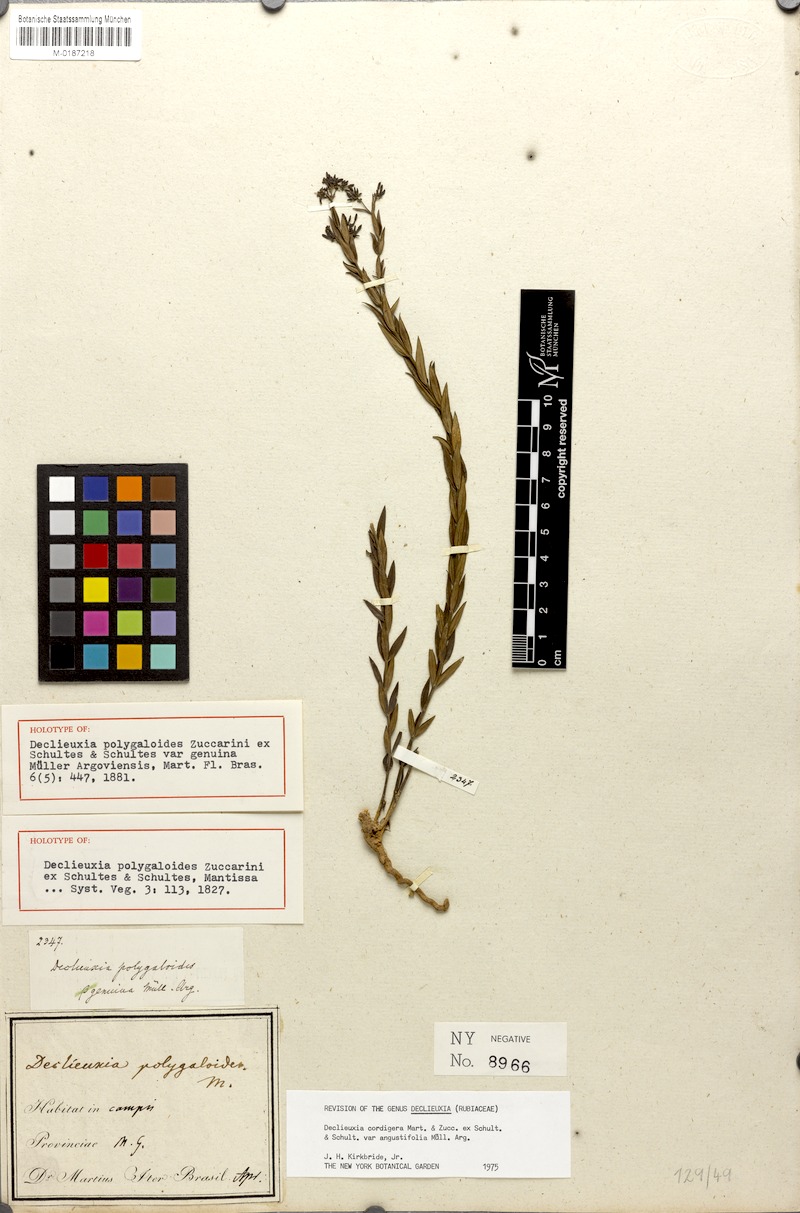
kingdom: Plantae
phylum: Tracheophyta
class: Magnoliopsida
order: Gentianales
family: Rubiaceae
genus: Declieuxia
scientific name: Declieuxia cordigera
